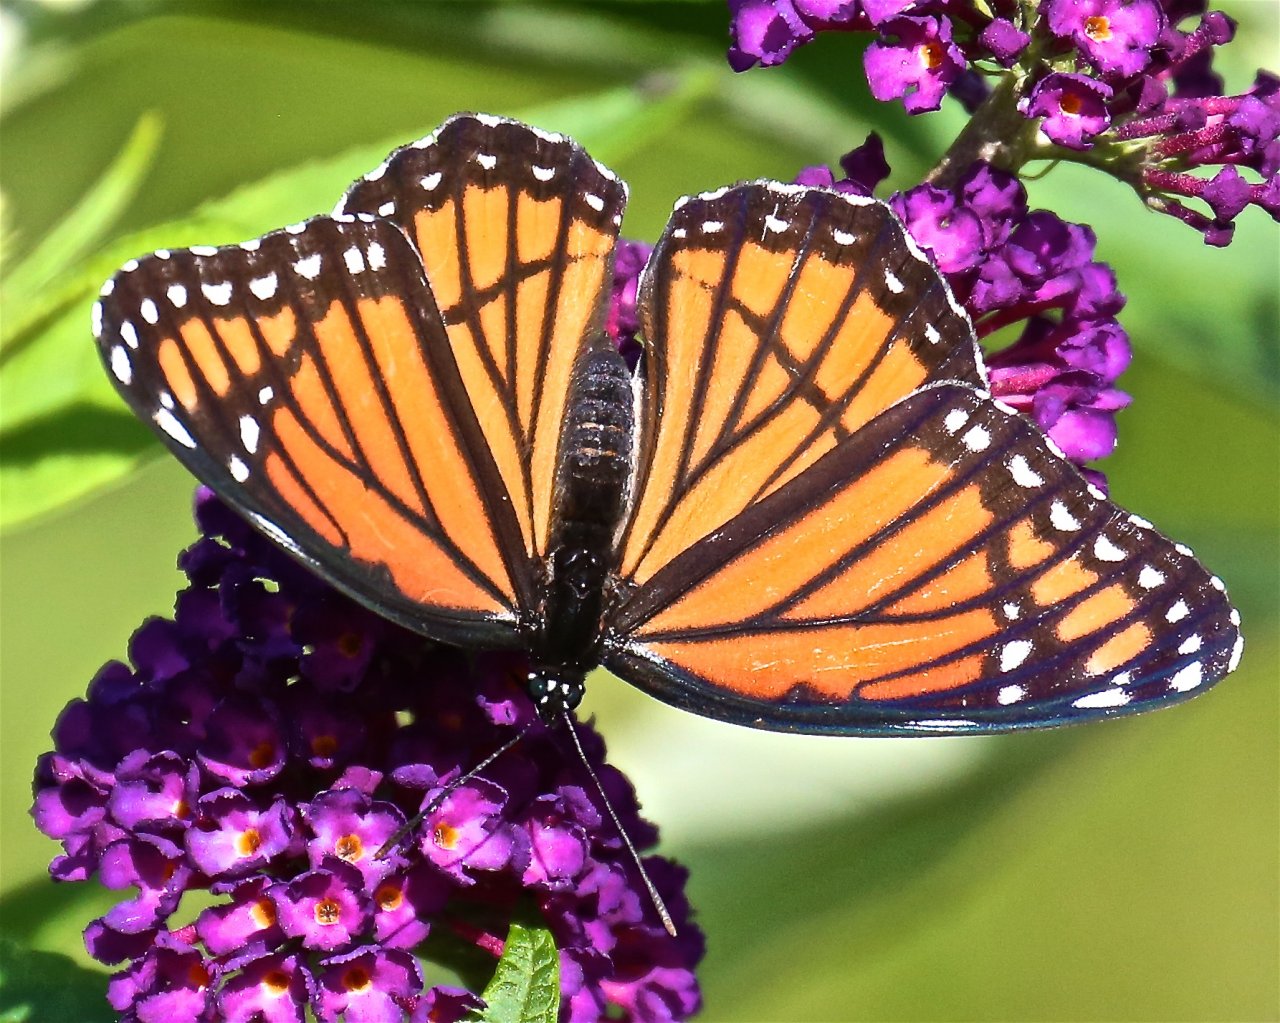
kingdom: Animalia
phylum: Arthropoda
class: Insecta
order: Lepidoptera
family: Nymphalidae
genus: Limenitis
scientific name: Limenitis archippus
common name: Viceroy
